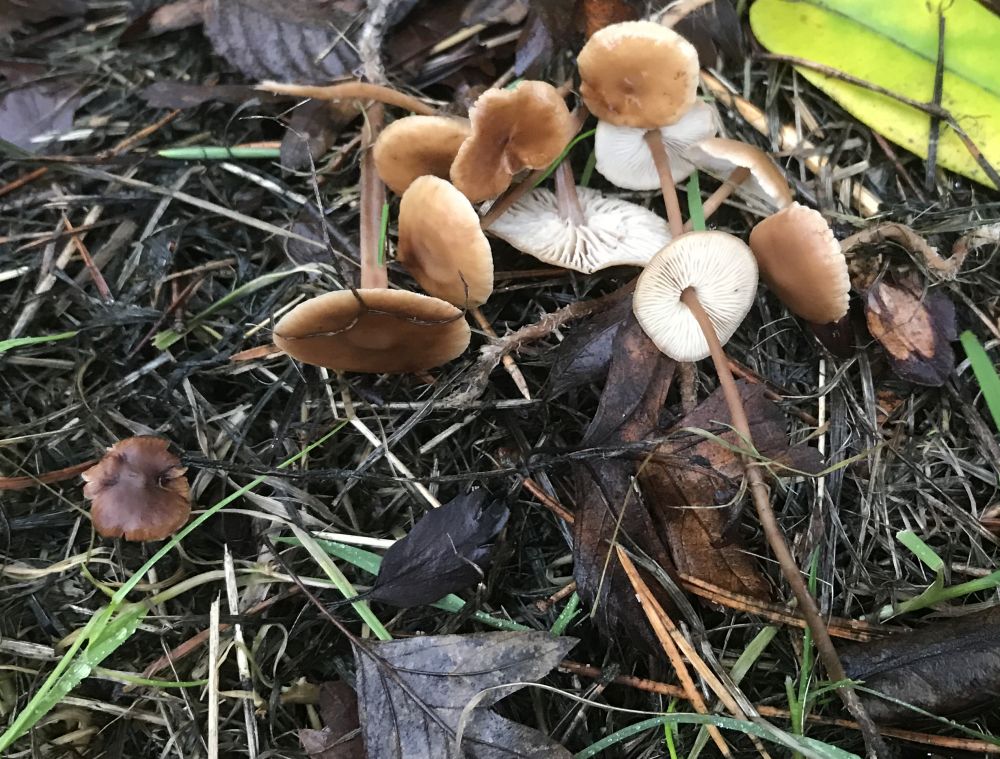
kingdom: Fungi
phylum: Basidiomycota
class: Agaricomycetes
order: Agaricales
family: Marasmiaceae
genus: Baeospora
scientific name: Baeospora myosura
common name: koglebruskhat
